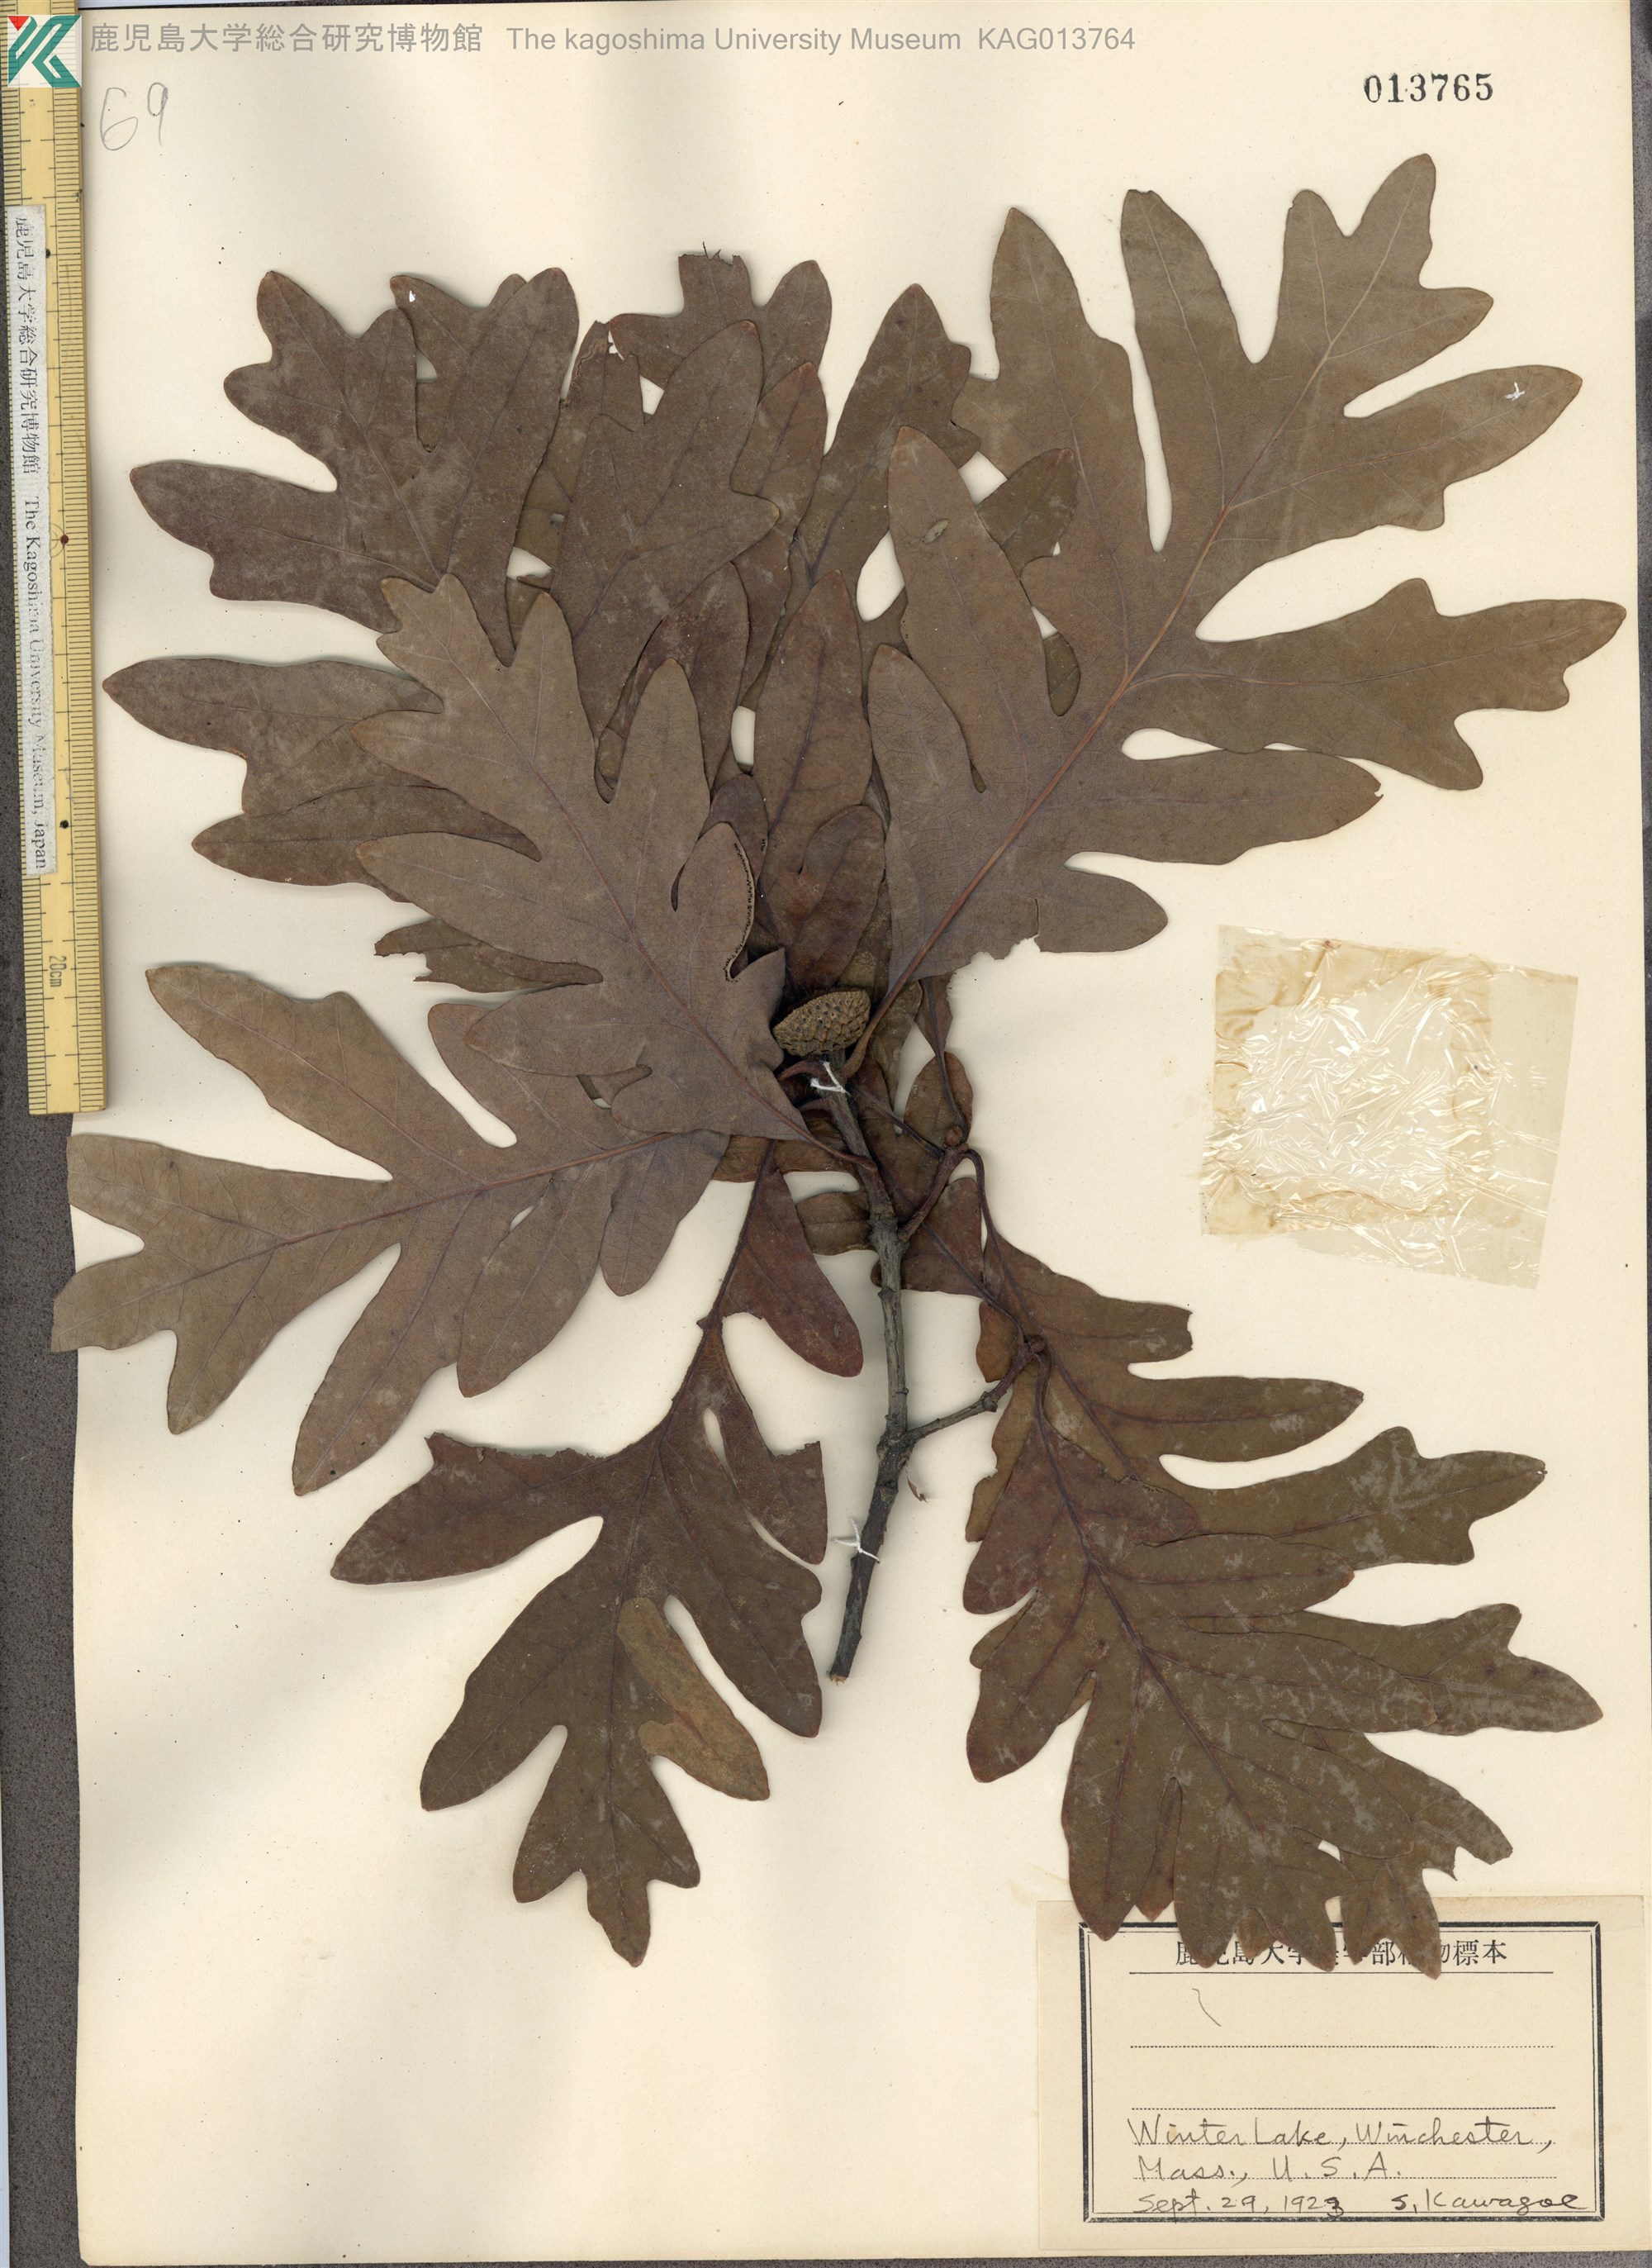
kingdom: Plantae
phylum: Tracheophyta
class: Magnoliopsida
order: Fagales
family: Fagaceae
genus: Quercus
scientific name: Quercus alba
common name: White oak
